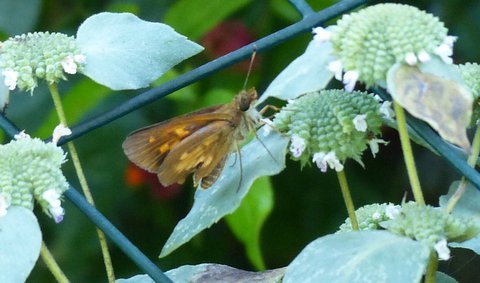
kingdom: Animalia
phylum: Arthropoda
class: Insecta
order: Lepidoptera
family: Hesperiidae
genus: Poanes
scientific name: Poanes viator
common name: Broad-winged Skipper
